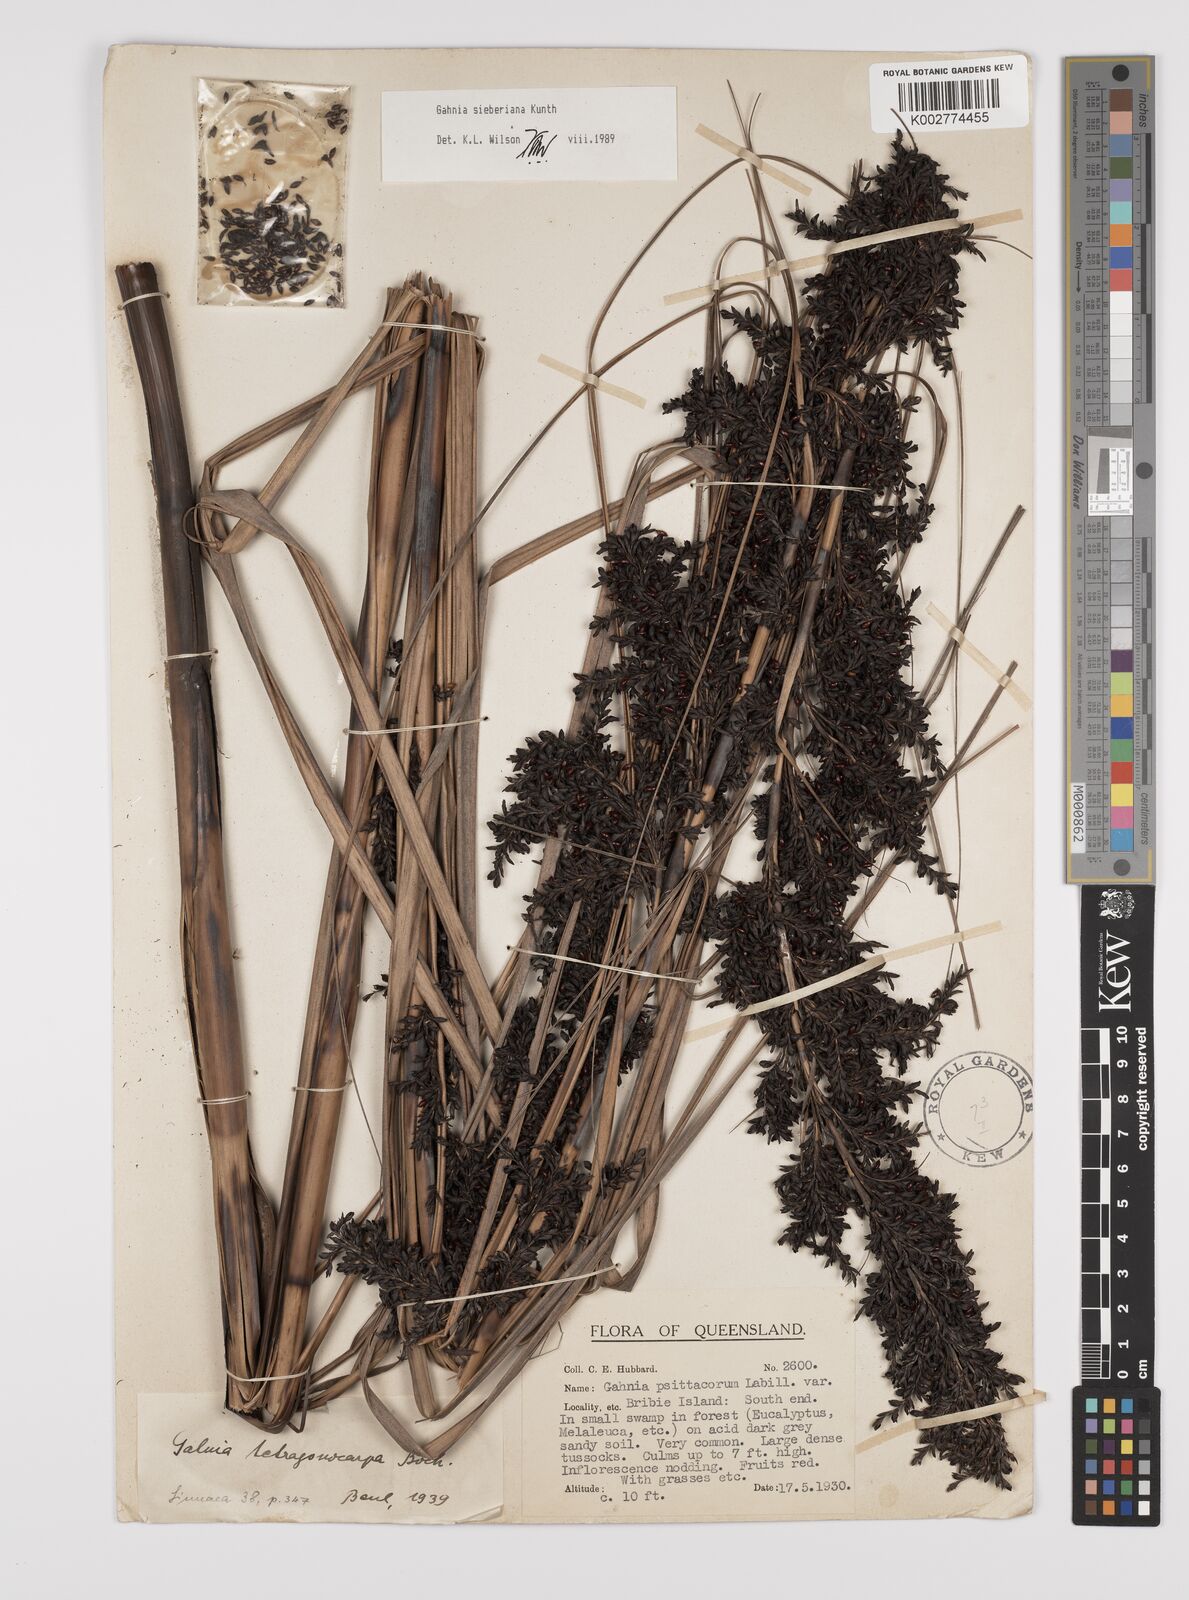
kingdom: Plantae
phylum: Tracheophyta
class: Liliopsida
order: Poales
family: Cyperaceae
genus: Gahnia
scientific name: Gahnia sieberiana
